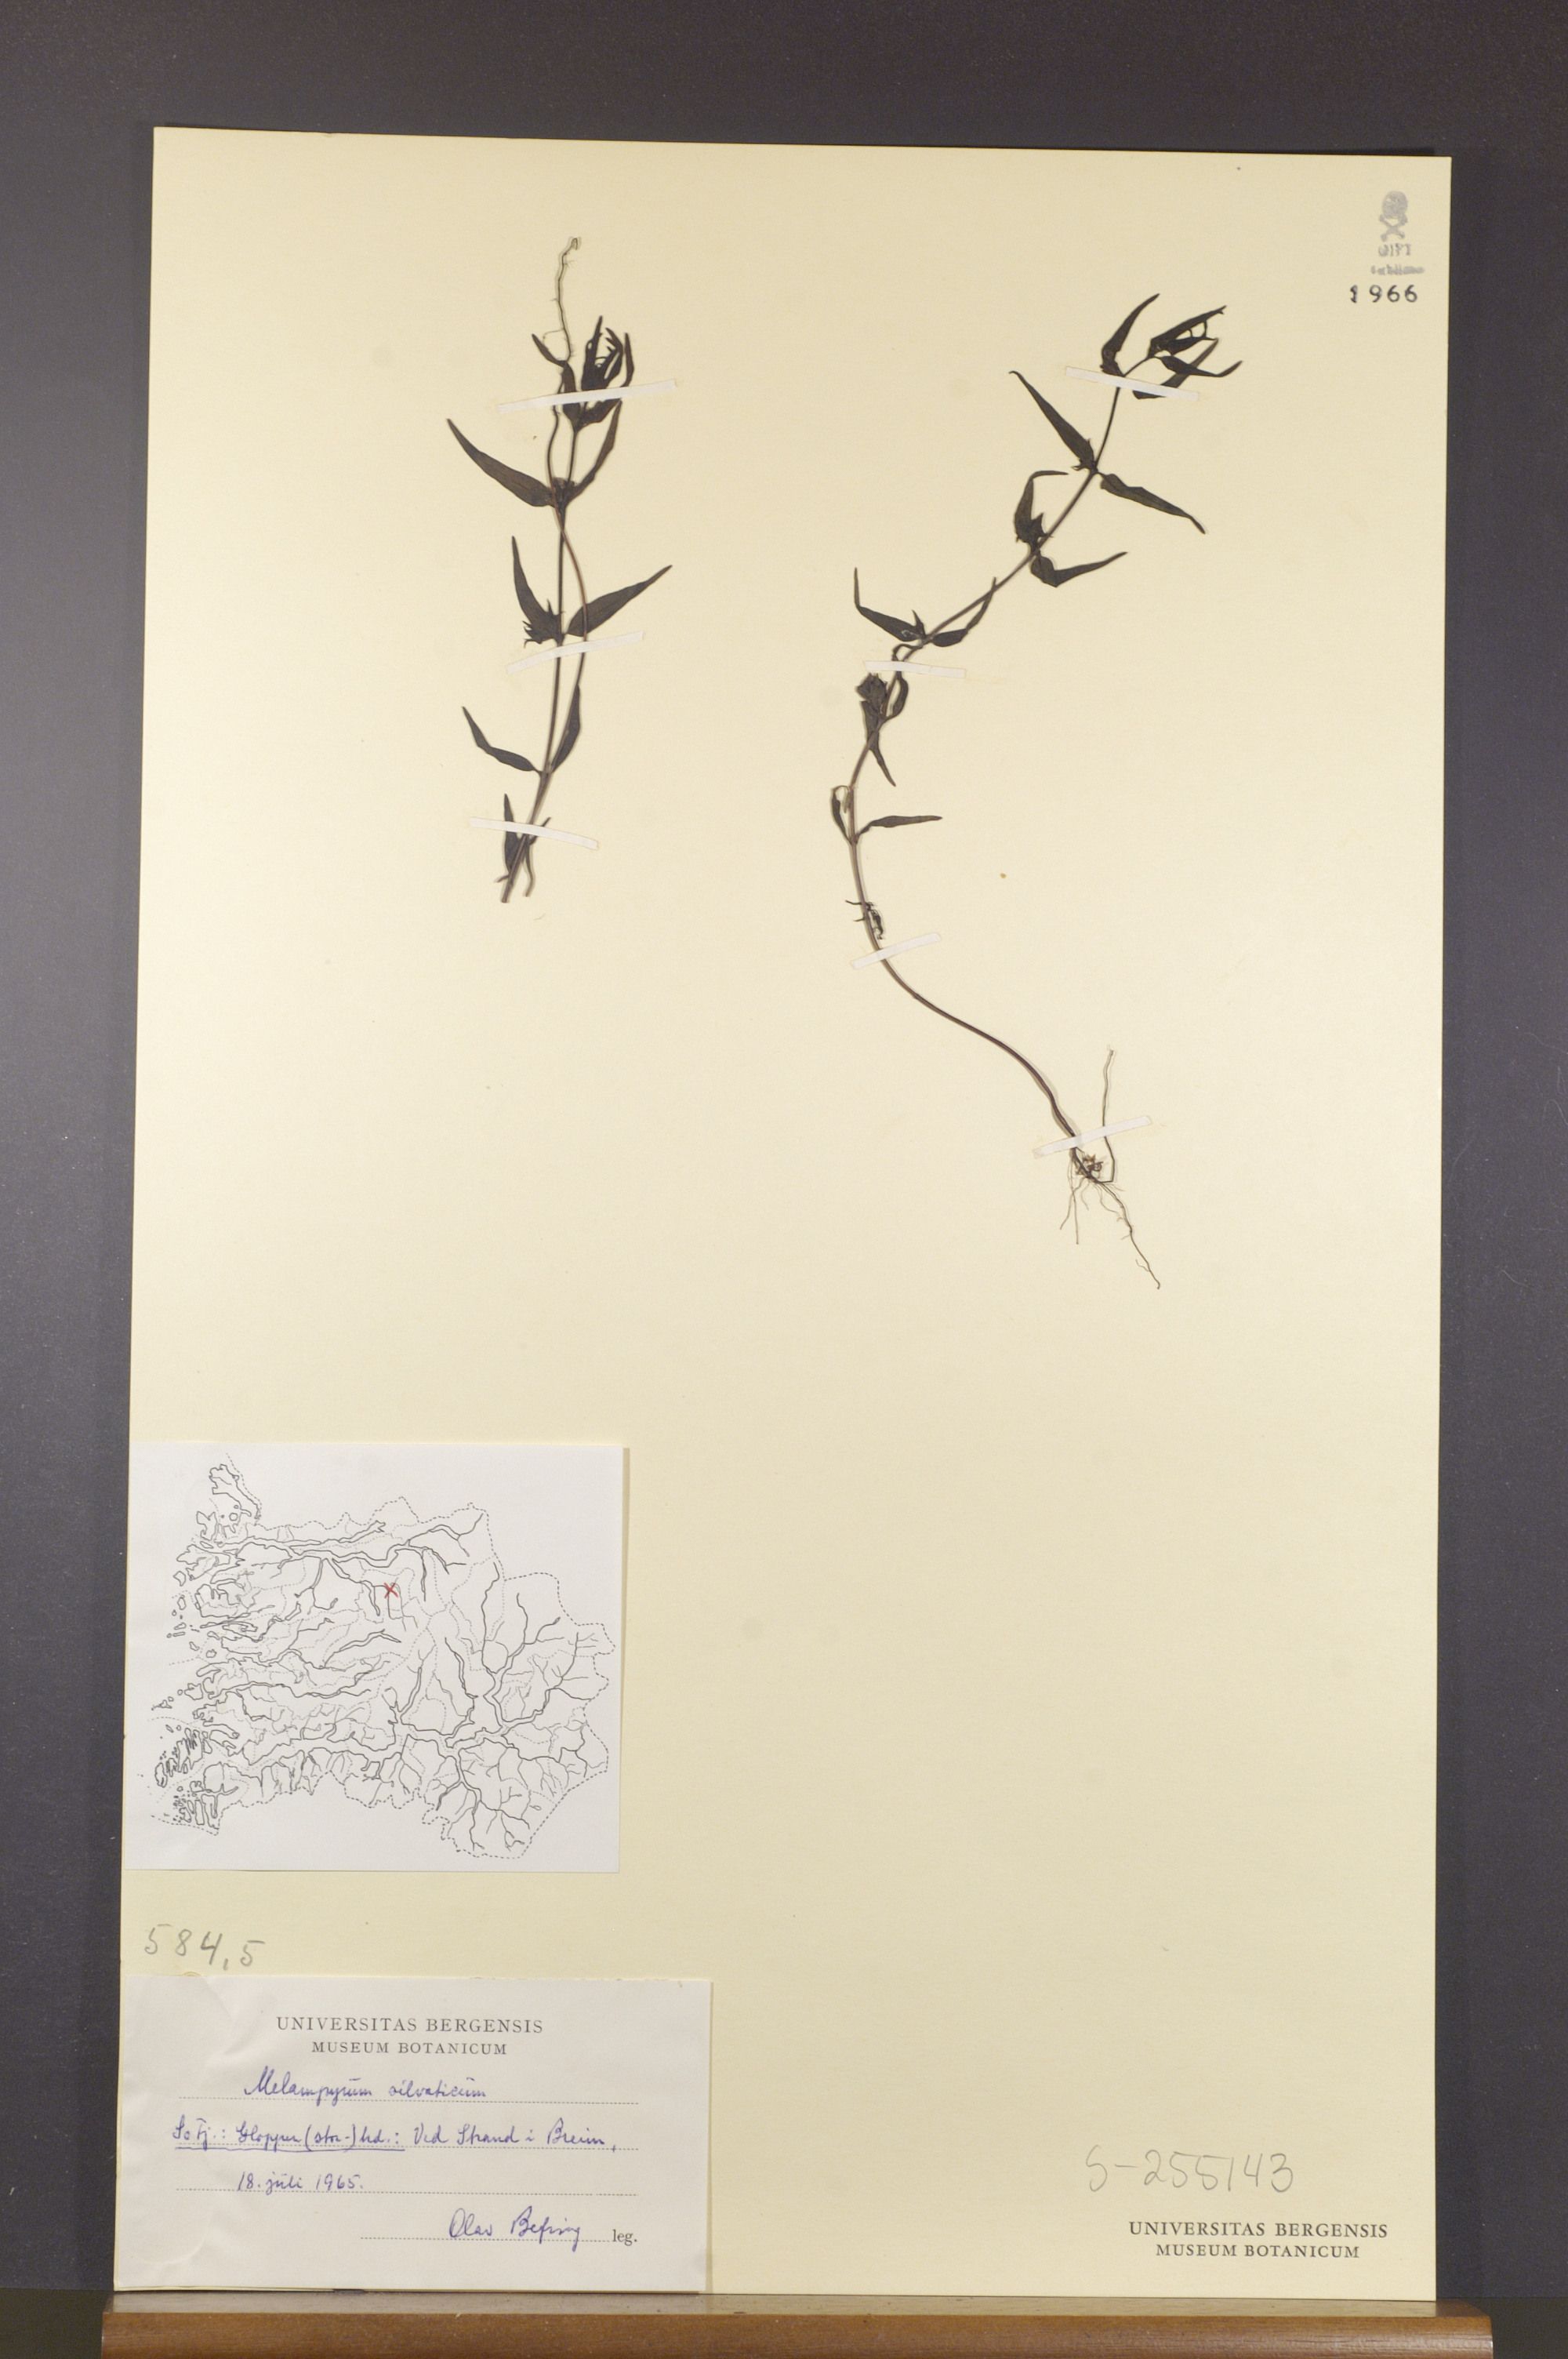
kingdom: Plantae
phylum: Tracheophyta
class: Magnoliopsida
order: Lamiales
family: Orobanchaceae
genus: Melampyrum
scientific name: Melampyrum sylvaticum
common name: Small cow-wheat
